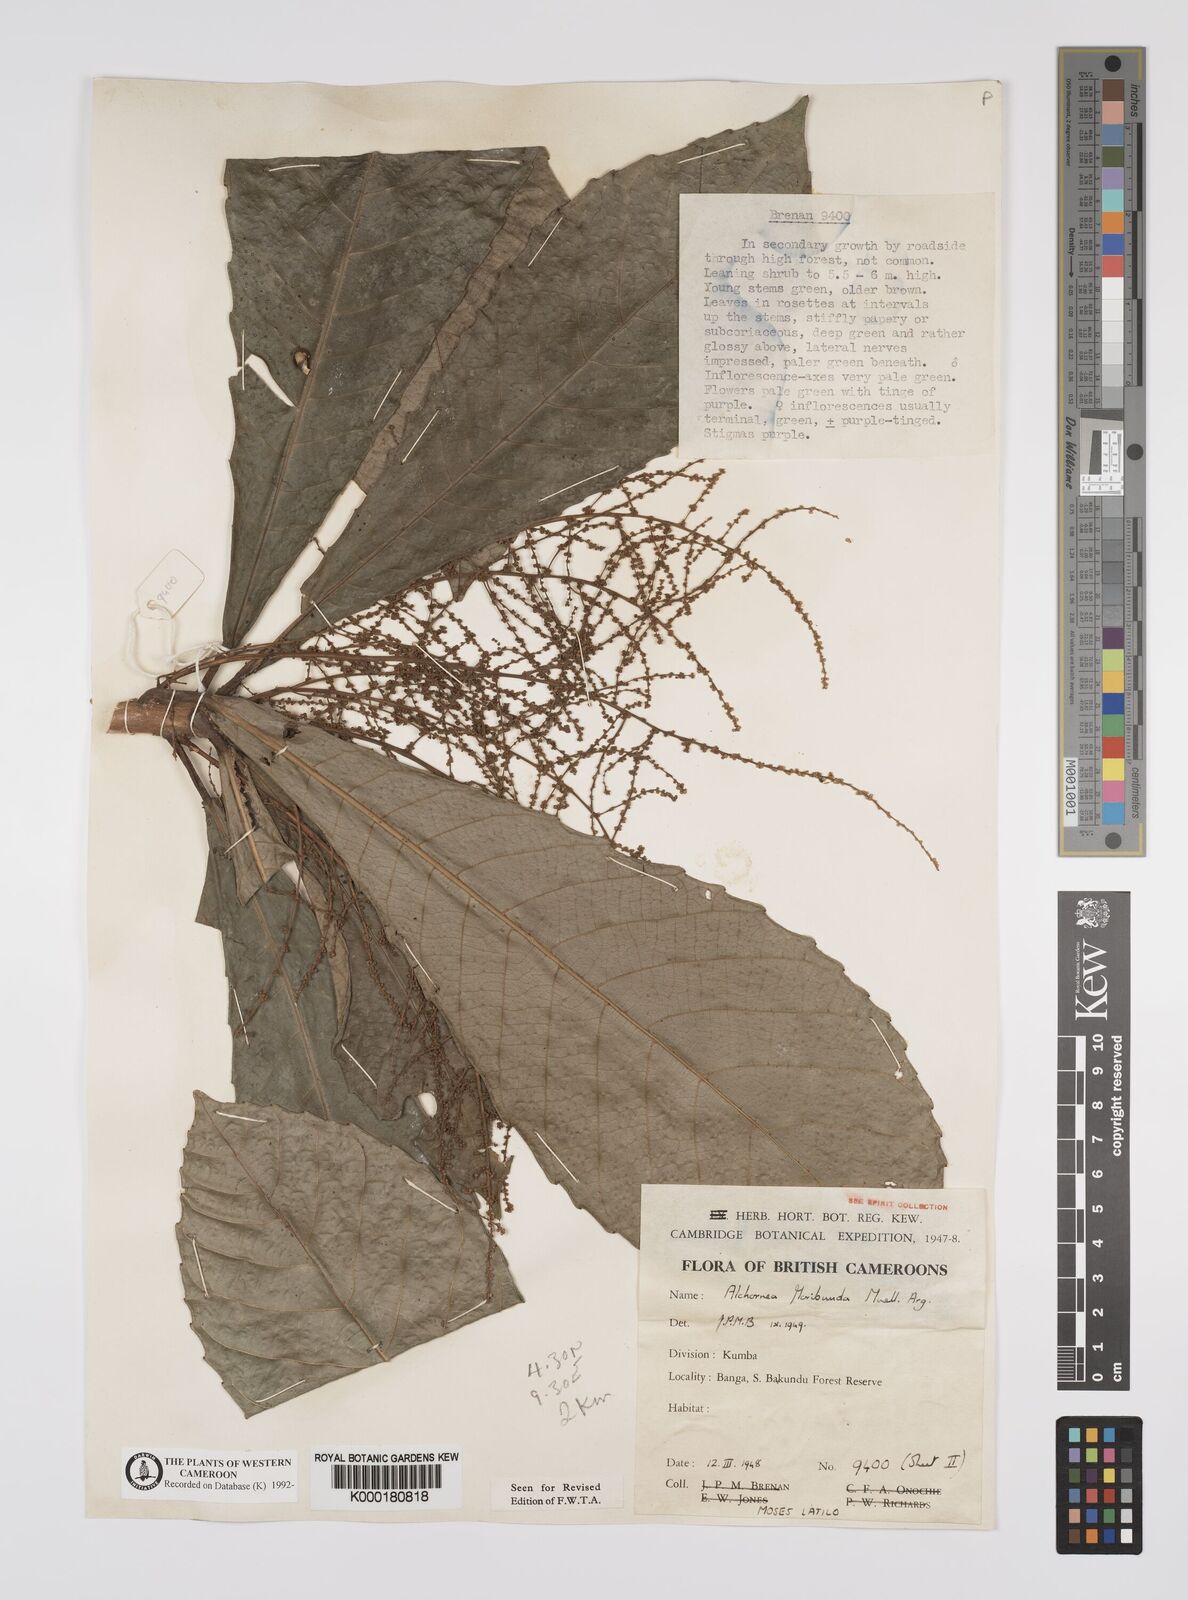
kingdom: Plantae
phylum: Tracheophyta
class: Magnoliopsida
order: Malpighiales
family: Euphorbiaceae
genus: Alchornea
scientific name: Alchornea
